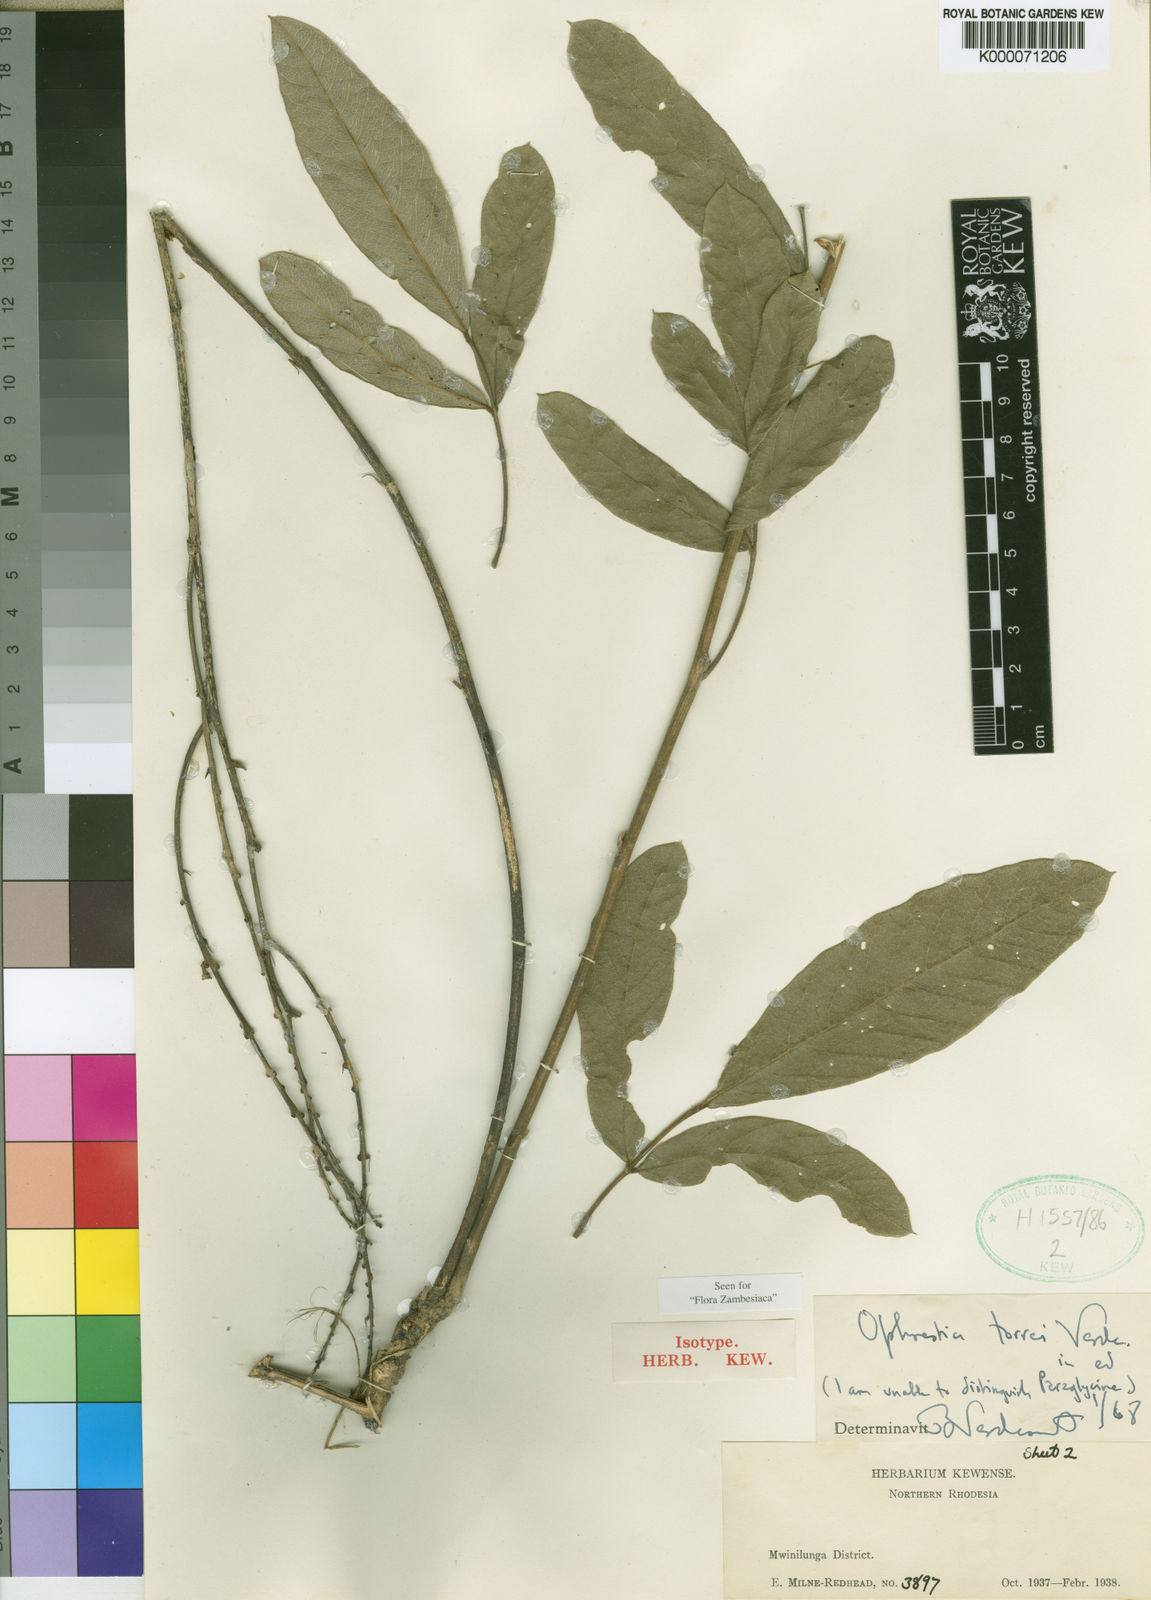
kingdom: Plantae
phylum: Tracheophyta
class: Magnoliopsida
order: Fabales
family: Fabaceae
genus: Ophrestia
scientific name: Ophrestia torrei
